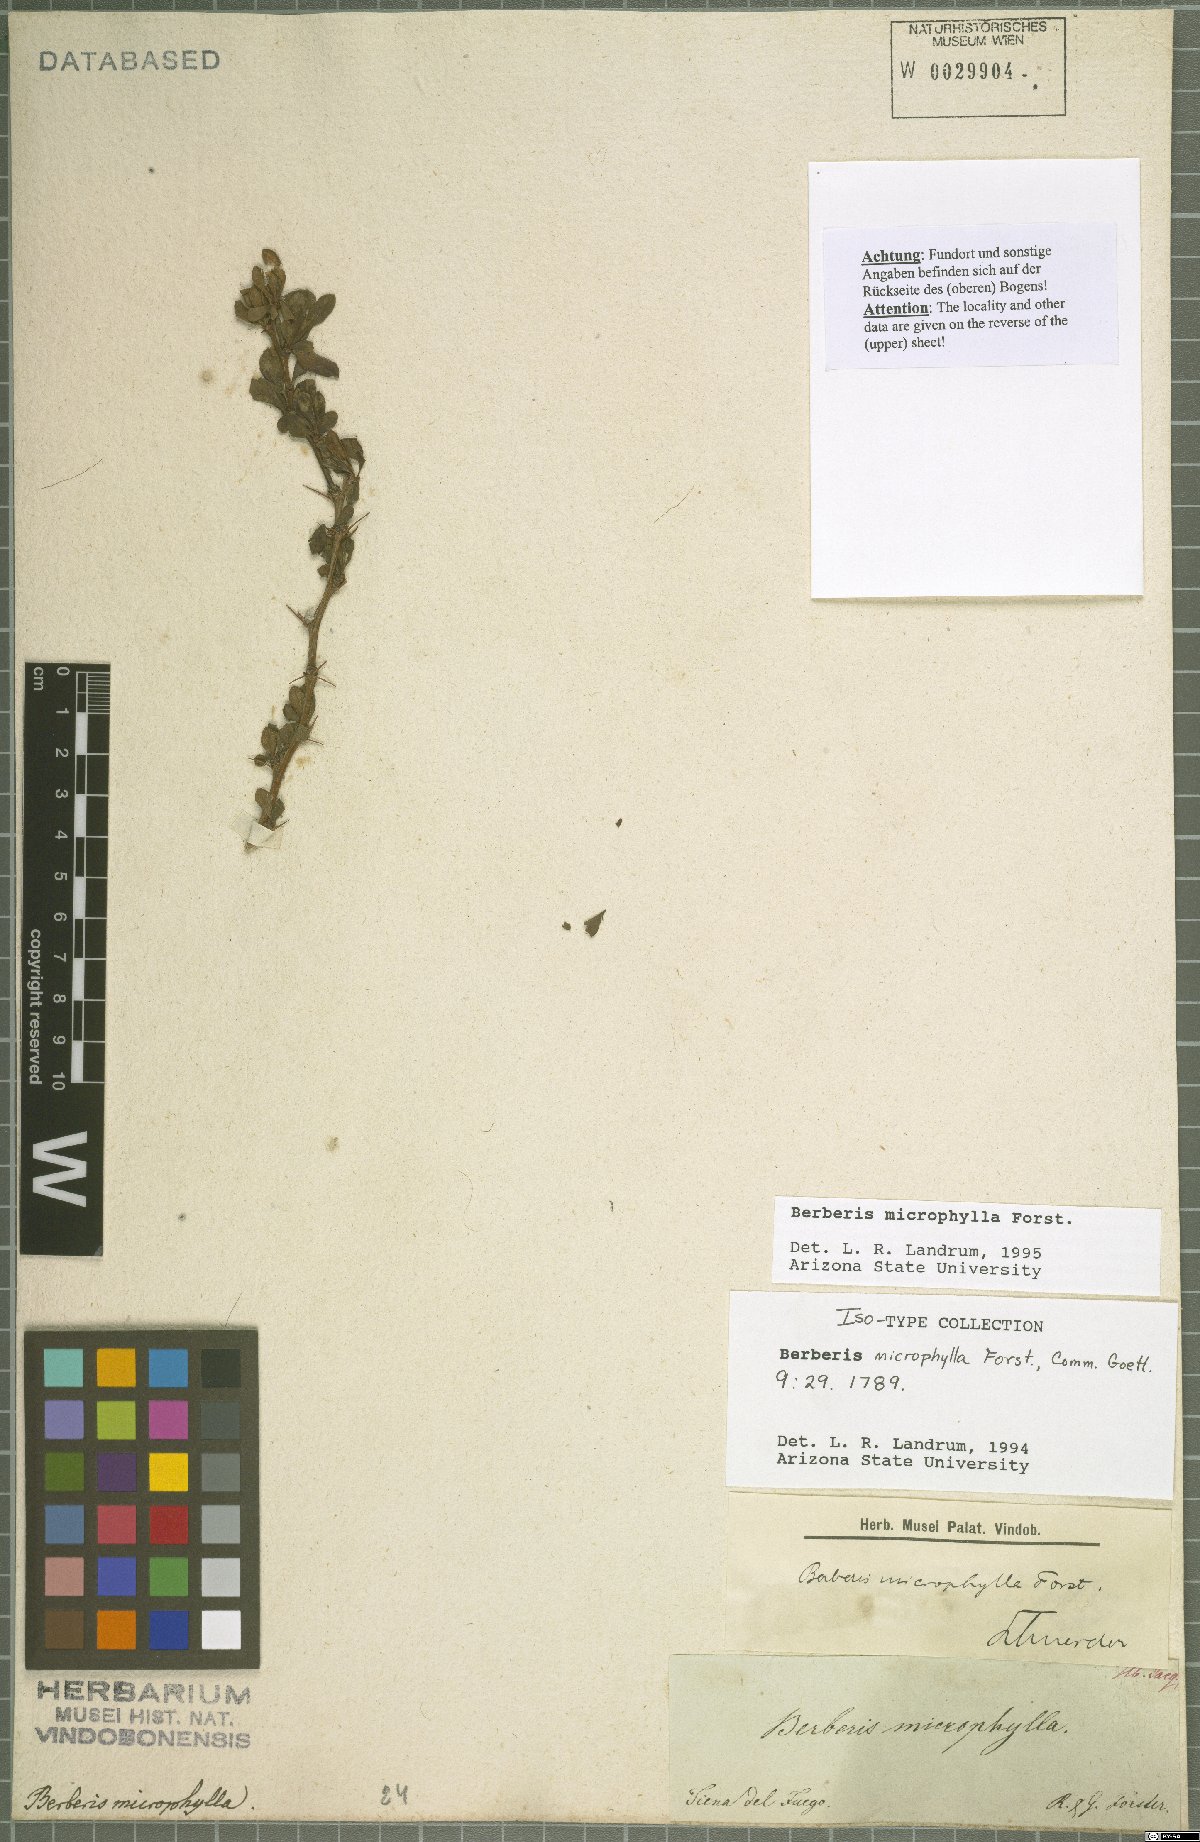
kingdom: Plantae
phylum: Tracheophyta
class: Magnoliopsida
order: Ranunculales
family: Berberidaceae
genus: Berberis
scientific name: Berberis microphylla
